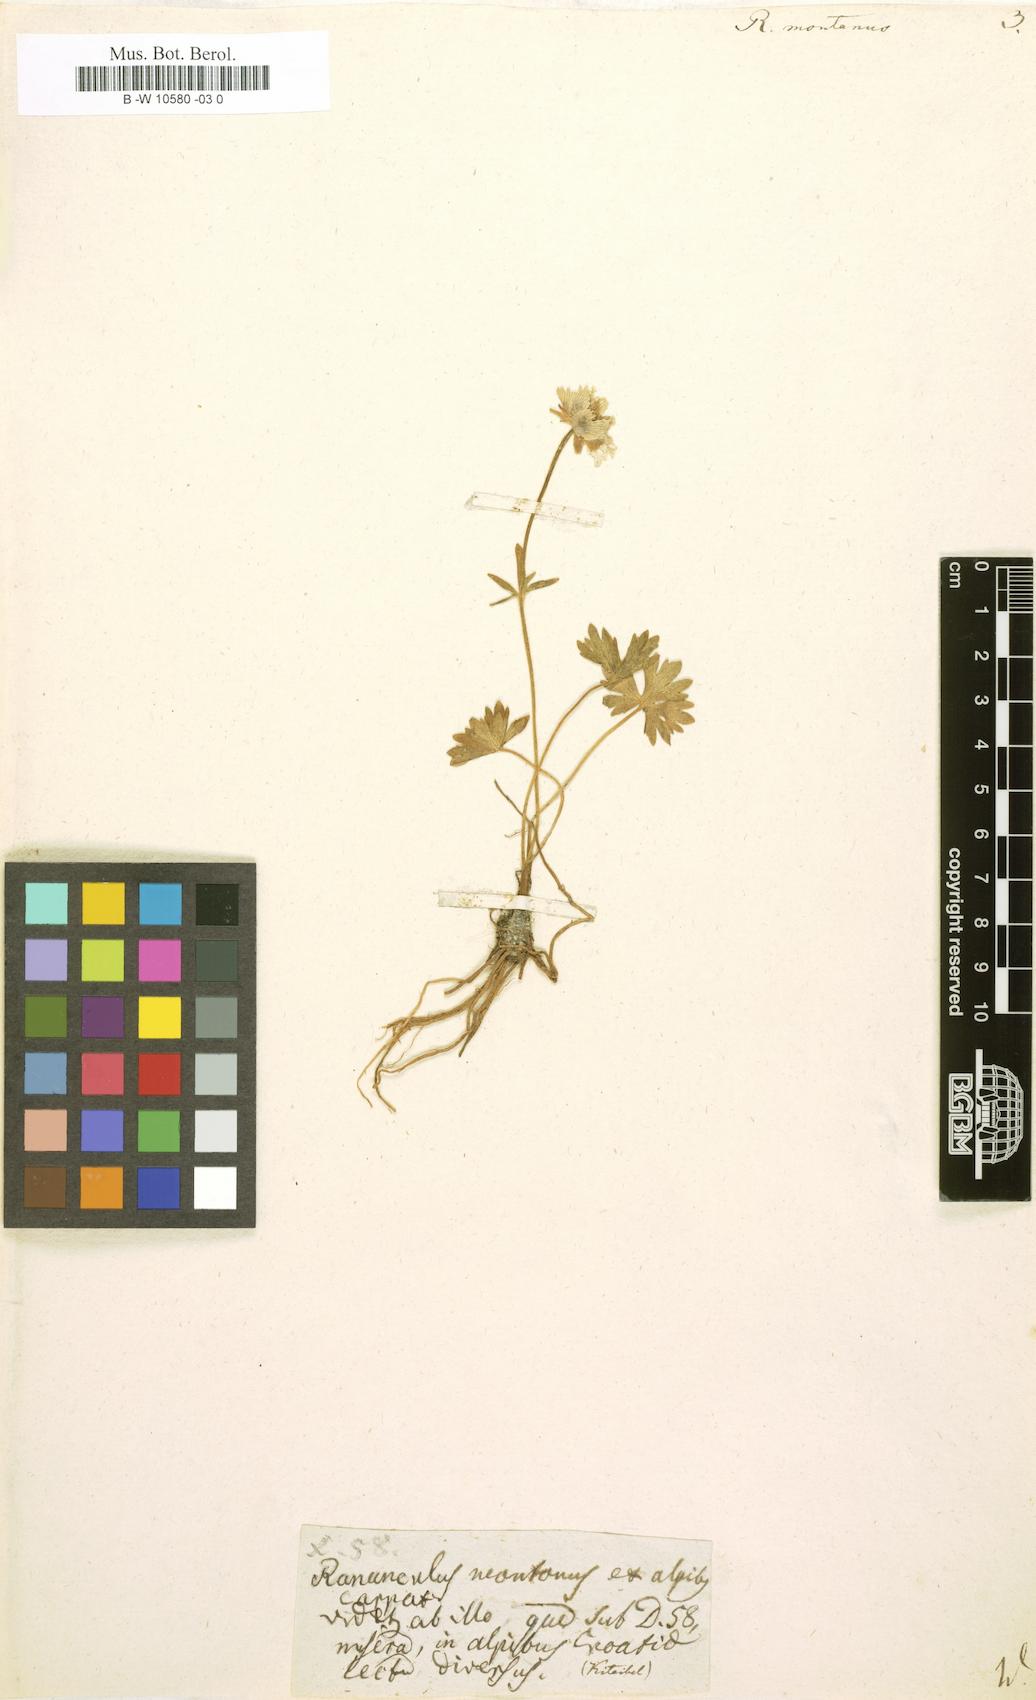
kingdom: Plantae
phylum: Tracheophyta
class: Magnoliopsida
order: Ranunculales
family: Ranunculaceae
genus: Ranunculus
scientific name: Ranunculus montanus
